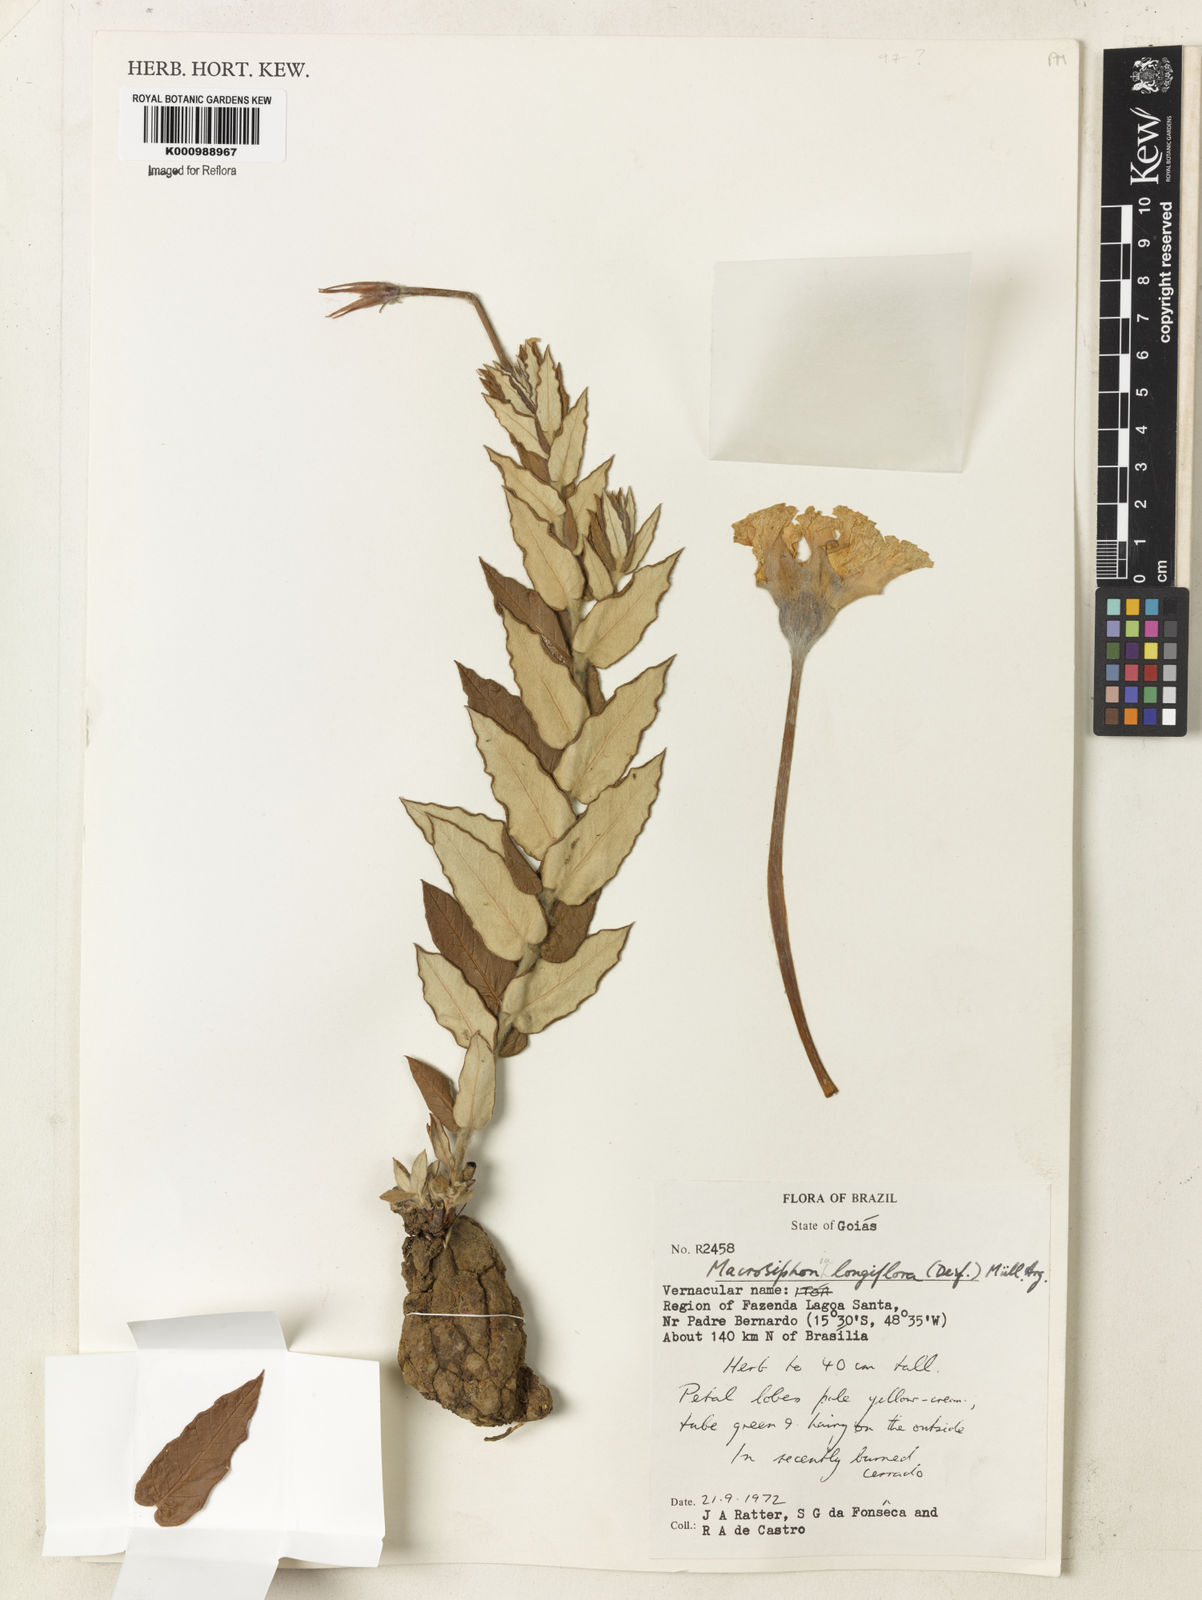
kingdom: Plantae
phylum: Tracheophyta
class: Magnoliopsida
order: Gentianales
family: Apocynaceae
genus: Mandevilla
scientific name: Mandevilla longiflora
